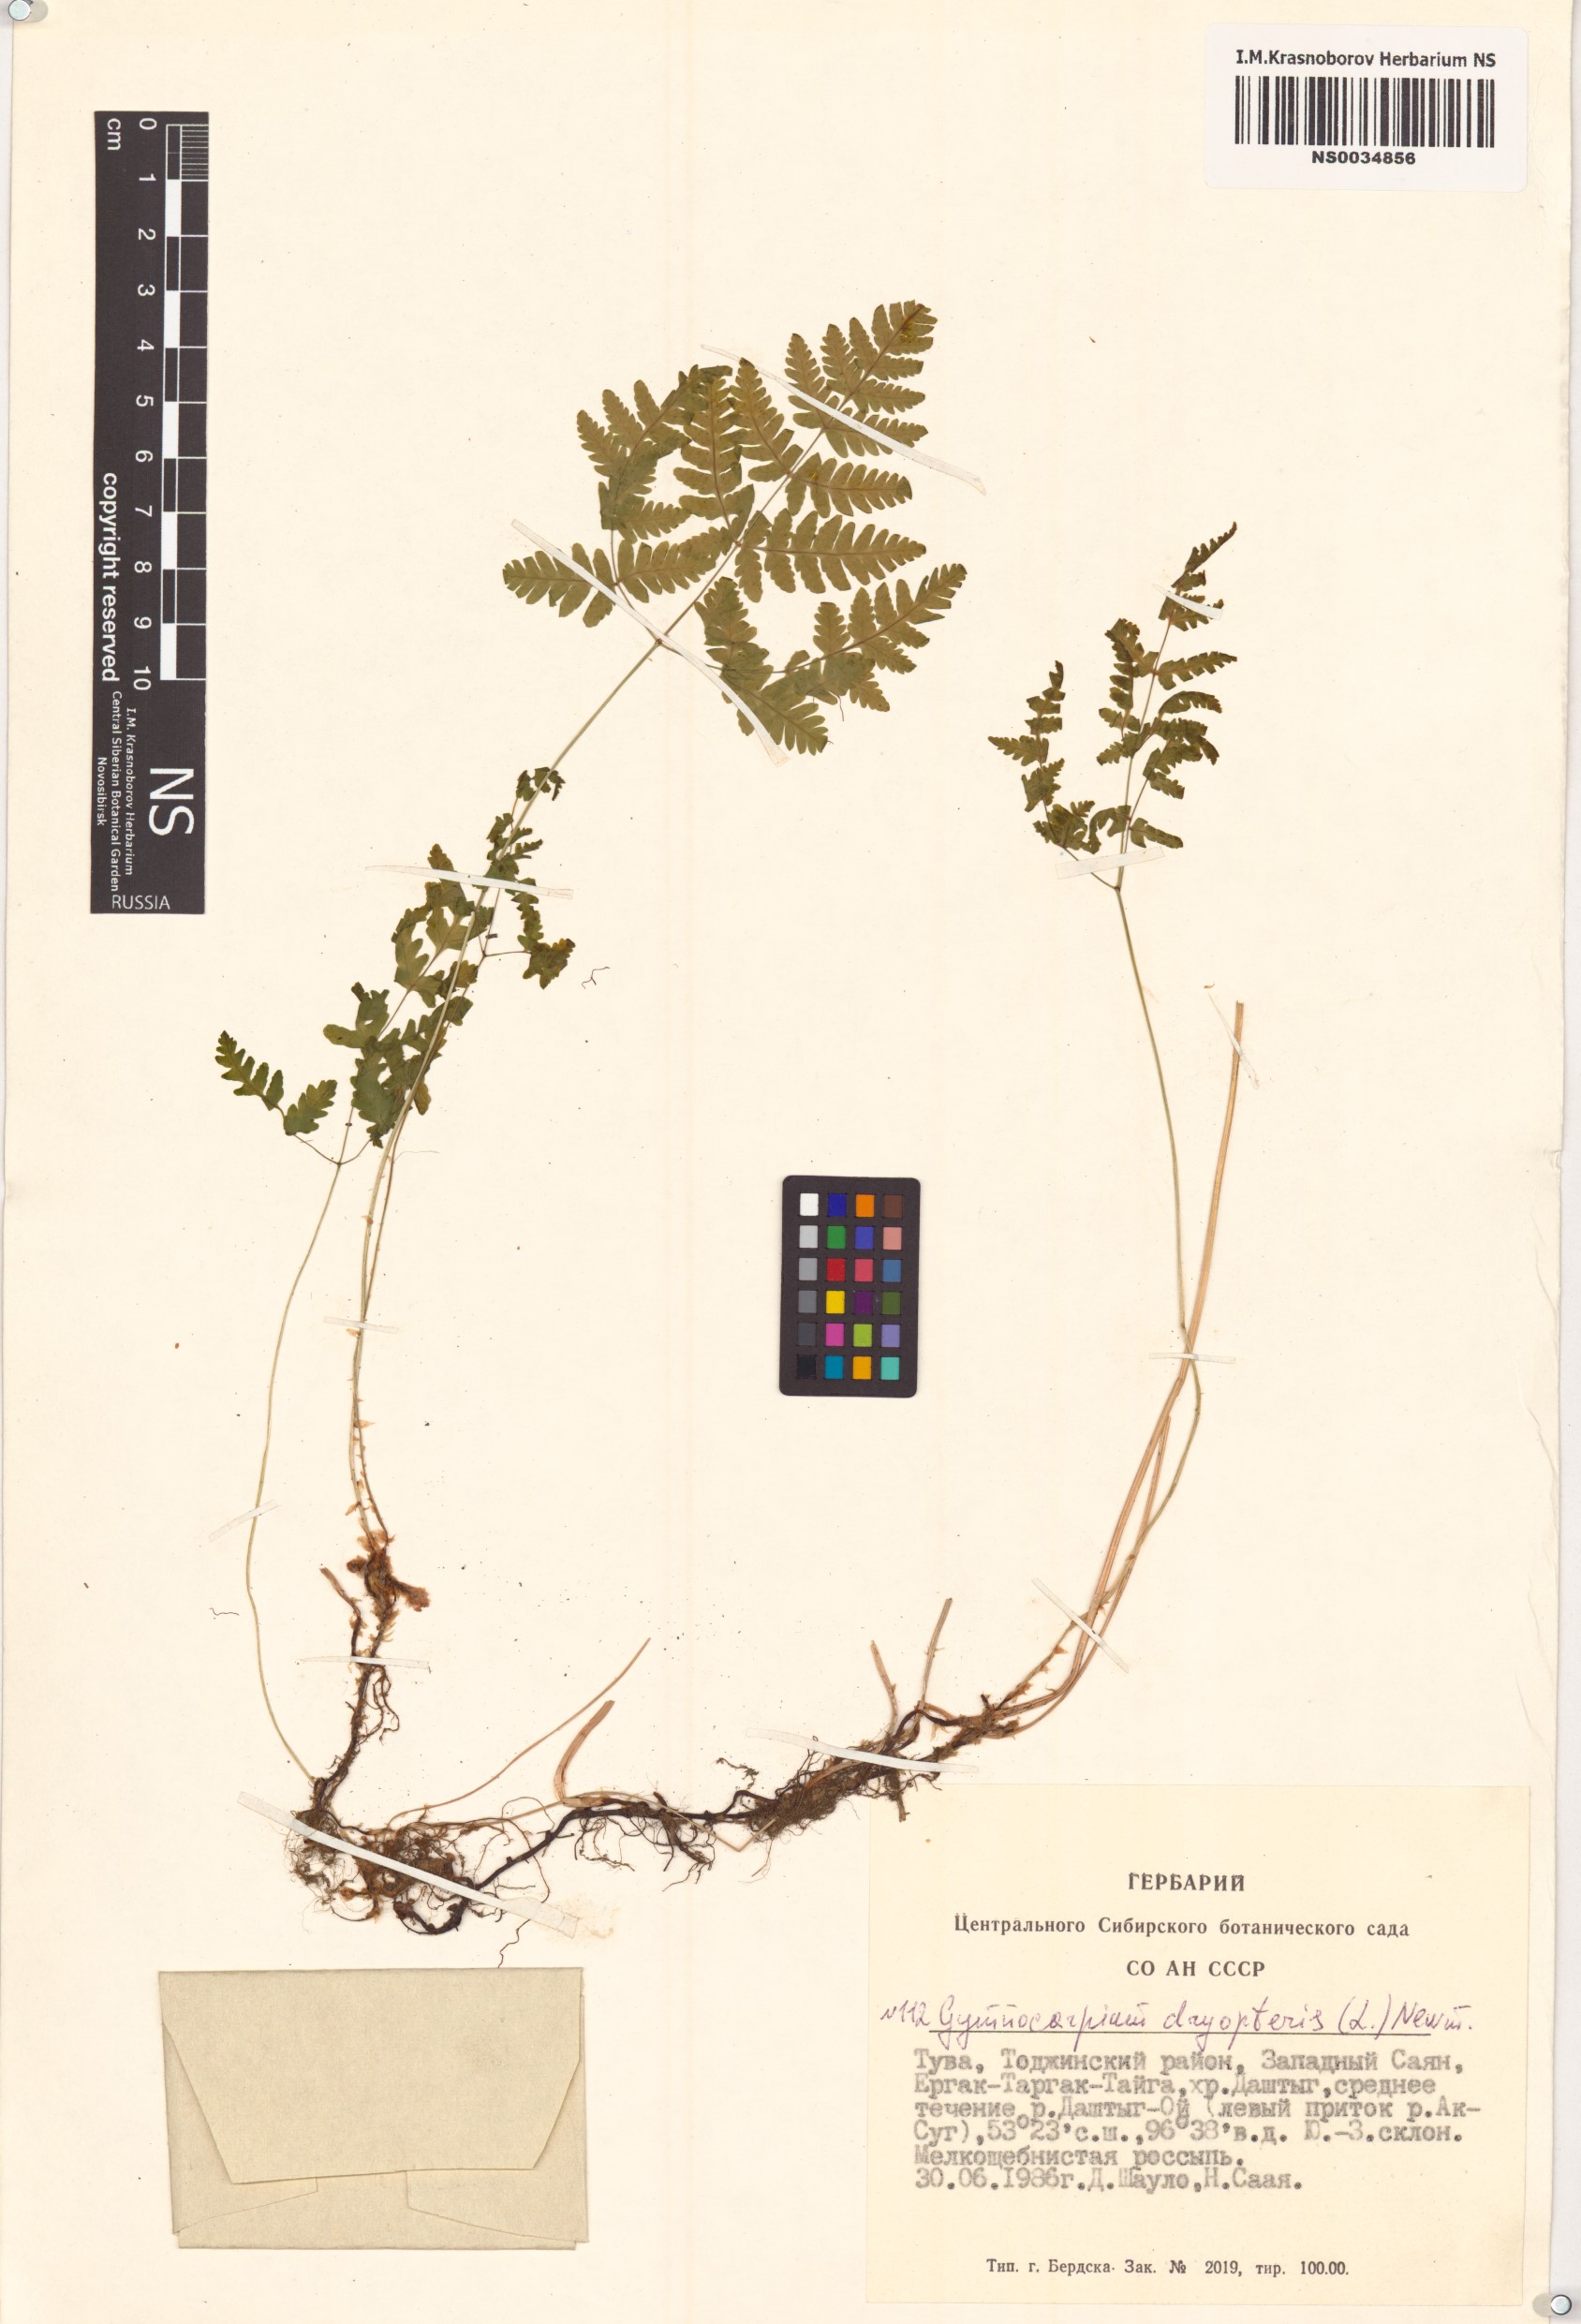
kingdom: Plantae
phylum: Tracheophyta
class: Polypodiopsida
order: Polypodiales
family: Cystopteridaceae
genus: Gymnocarpium
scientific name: Gymnocarpium dryopteris
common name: Oak fern
